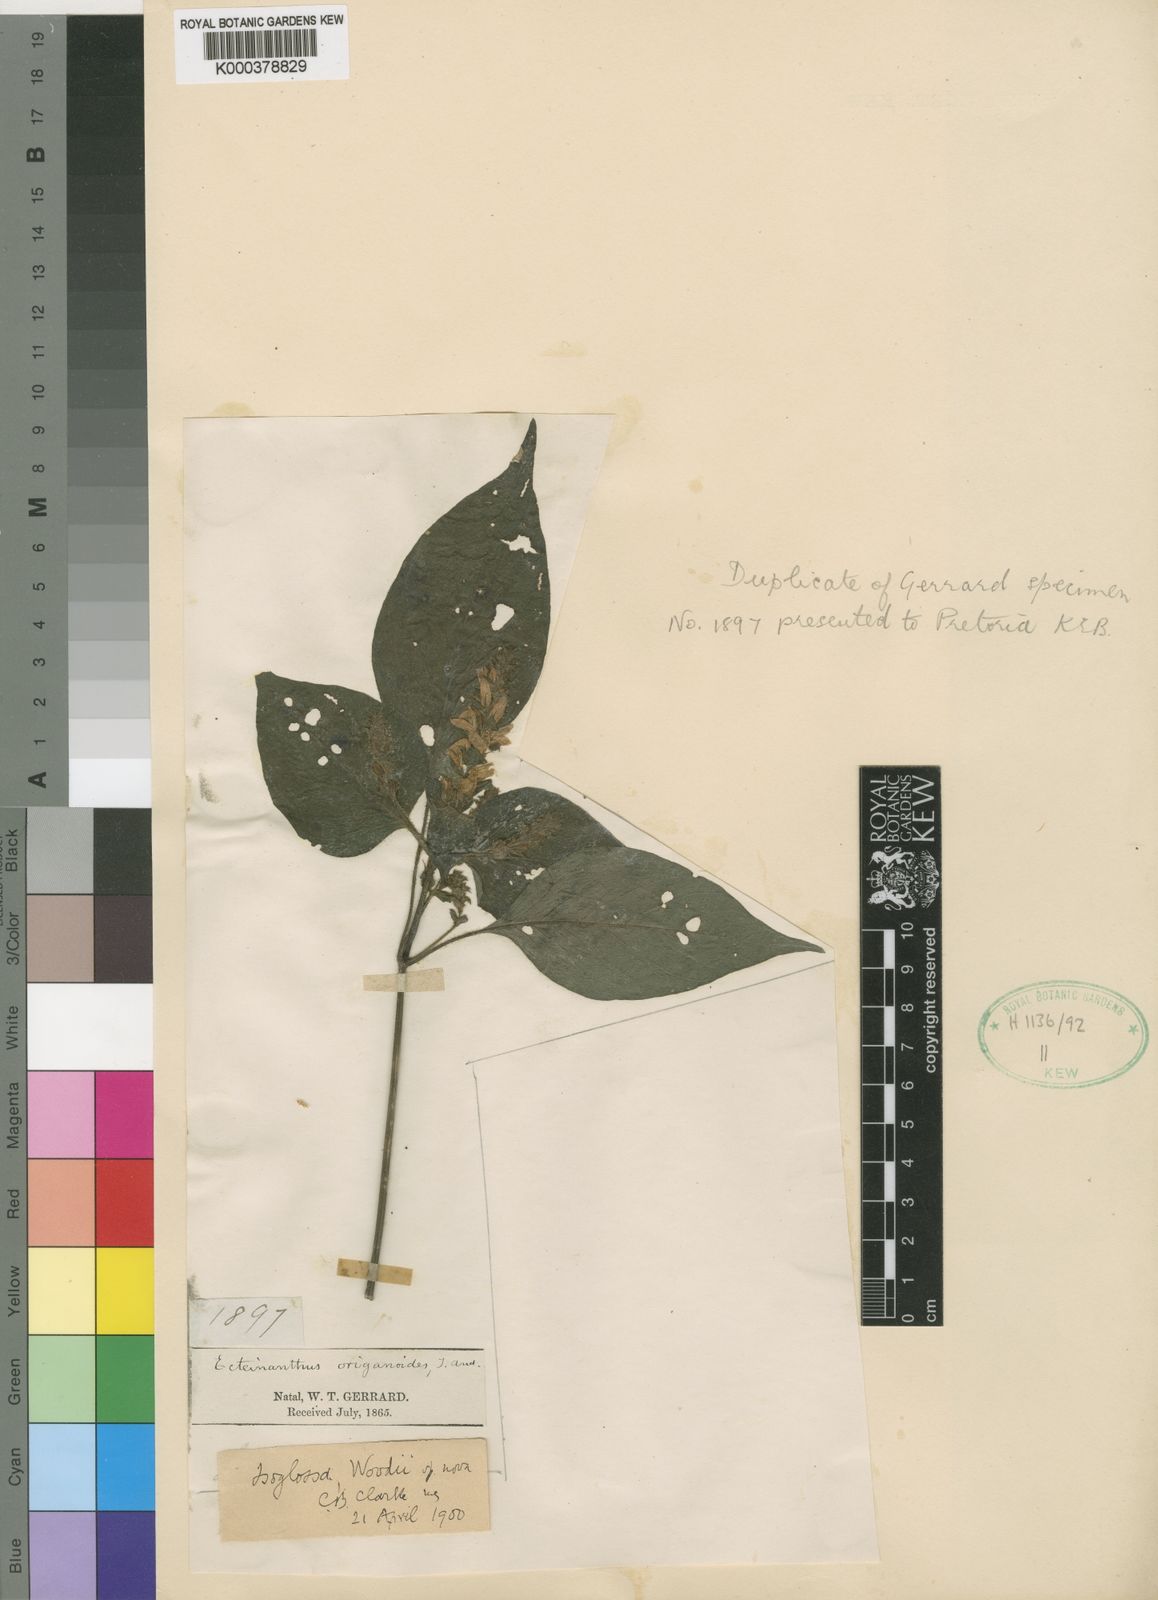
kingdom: Plantae
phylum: Tracheophyta
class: Magnoliopsida
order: Lamiales
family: Acanthaceae
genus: Isoglossa
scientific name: Isoglossa woodii
